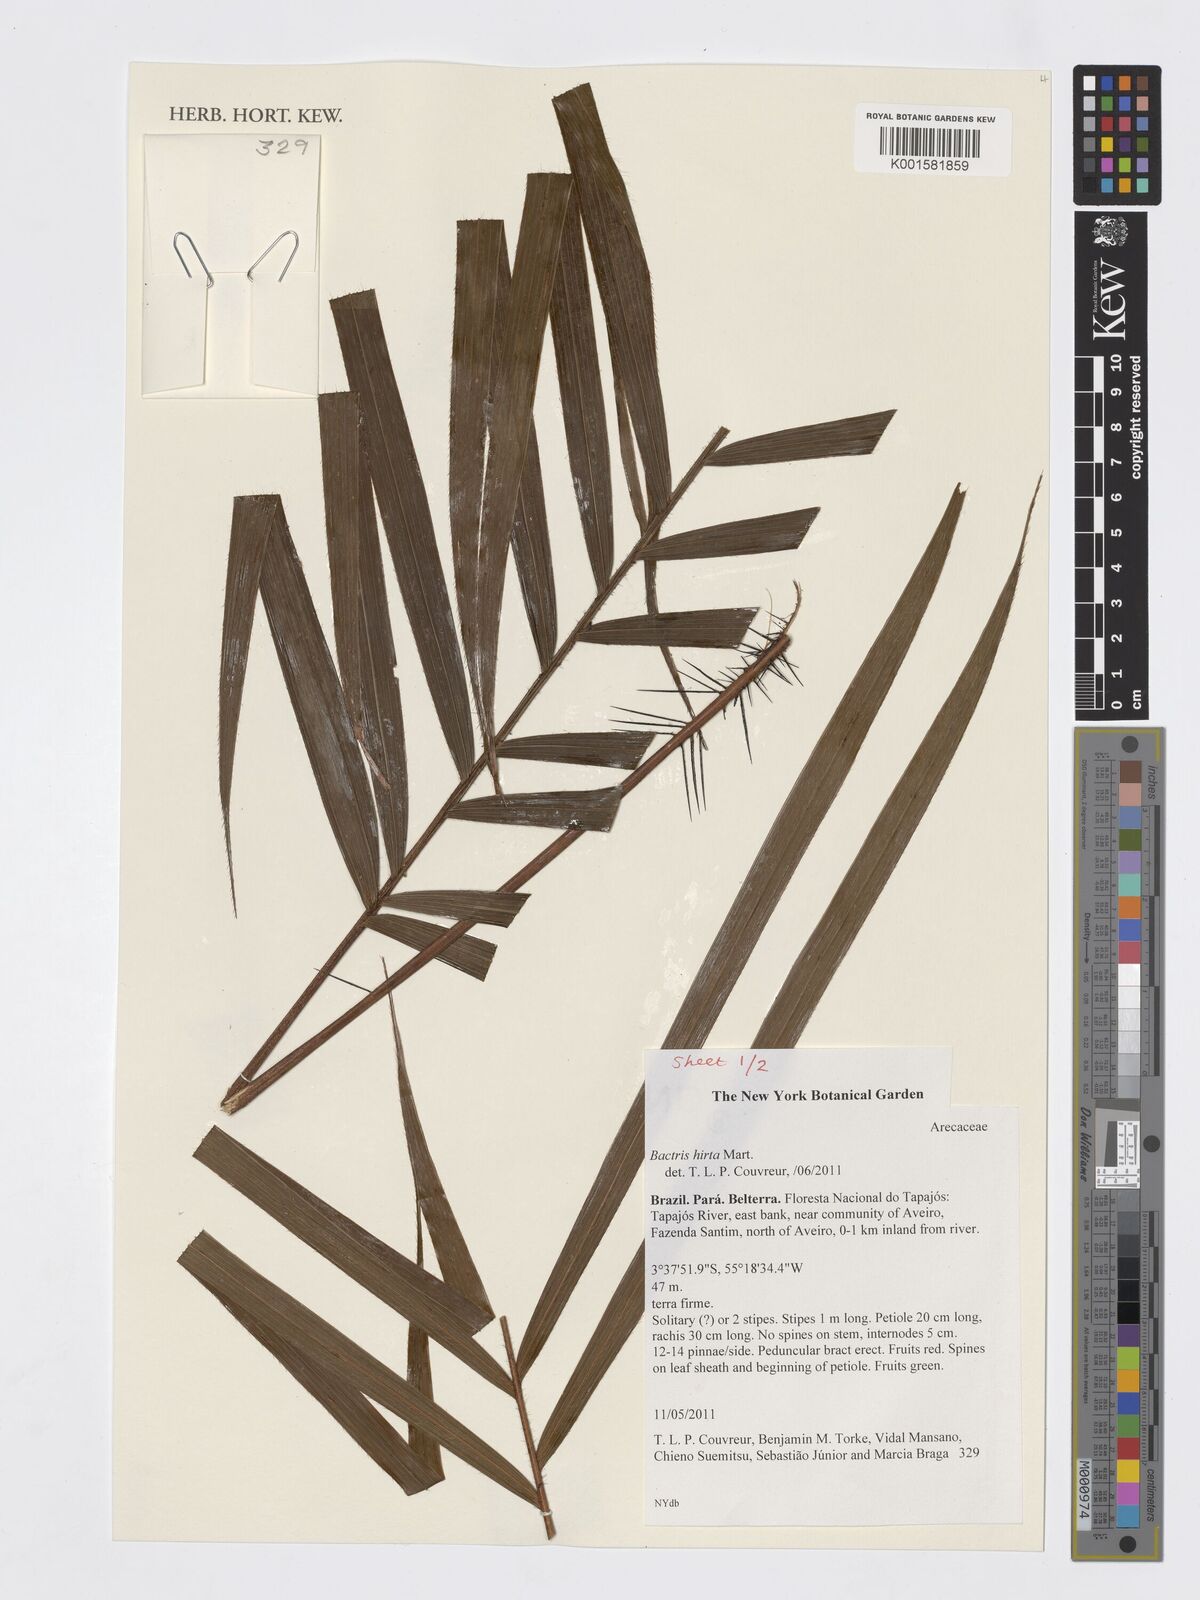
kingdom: Plantae
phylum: Tracheophyta
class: Liliopsida
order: Arecales
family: Arecaceae
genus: Bactris
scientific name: Bactris hirta
